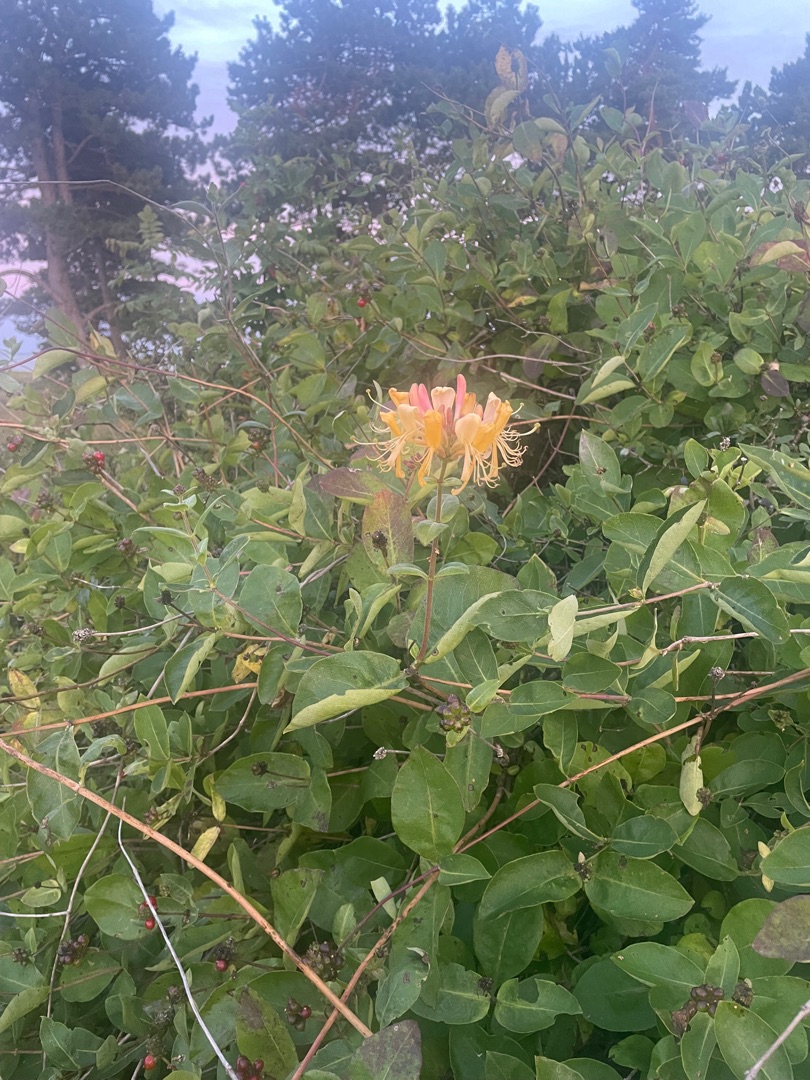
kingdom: Plantae
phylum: Tracheophyta
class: Magnoliopsida
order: Dipsacales
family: Caprifoliaceae
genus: Lonicera
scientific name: Lonicera periclymenum
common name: Almindelig gedeblad
